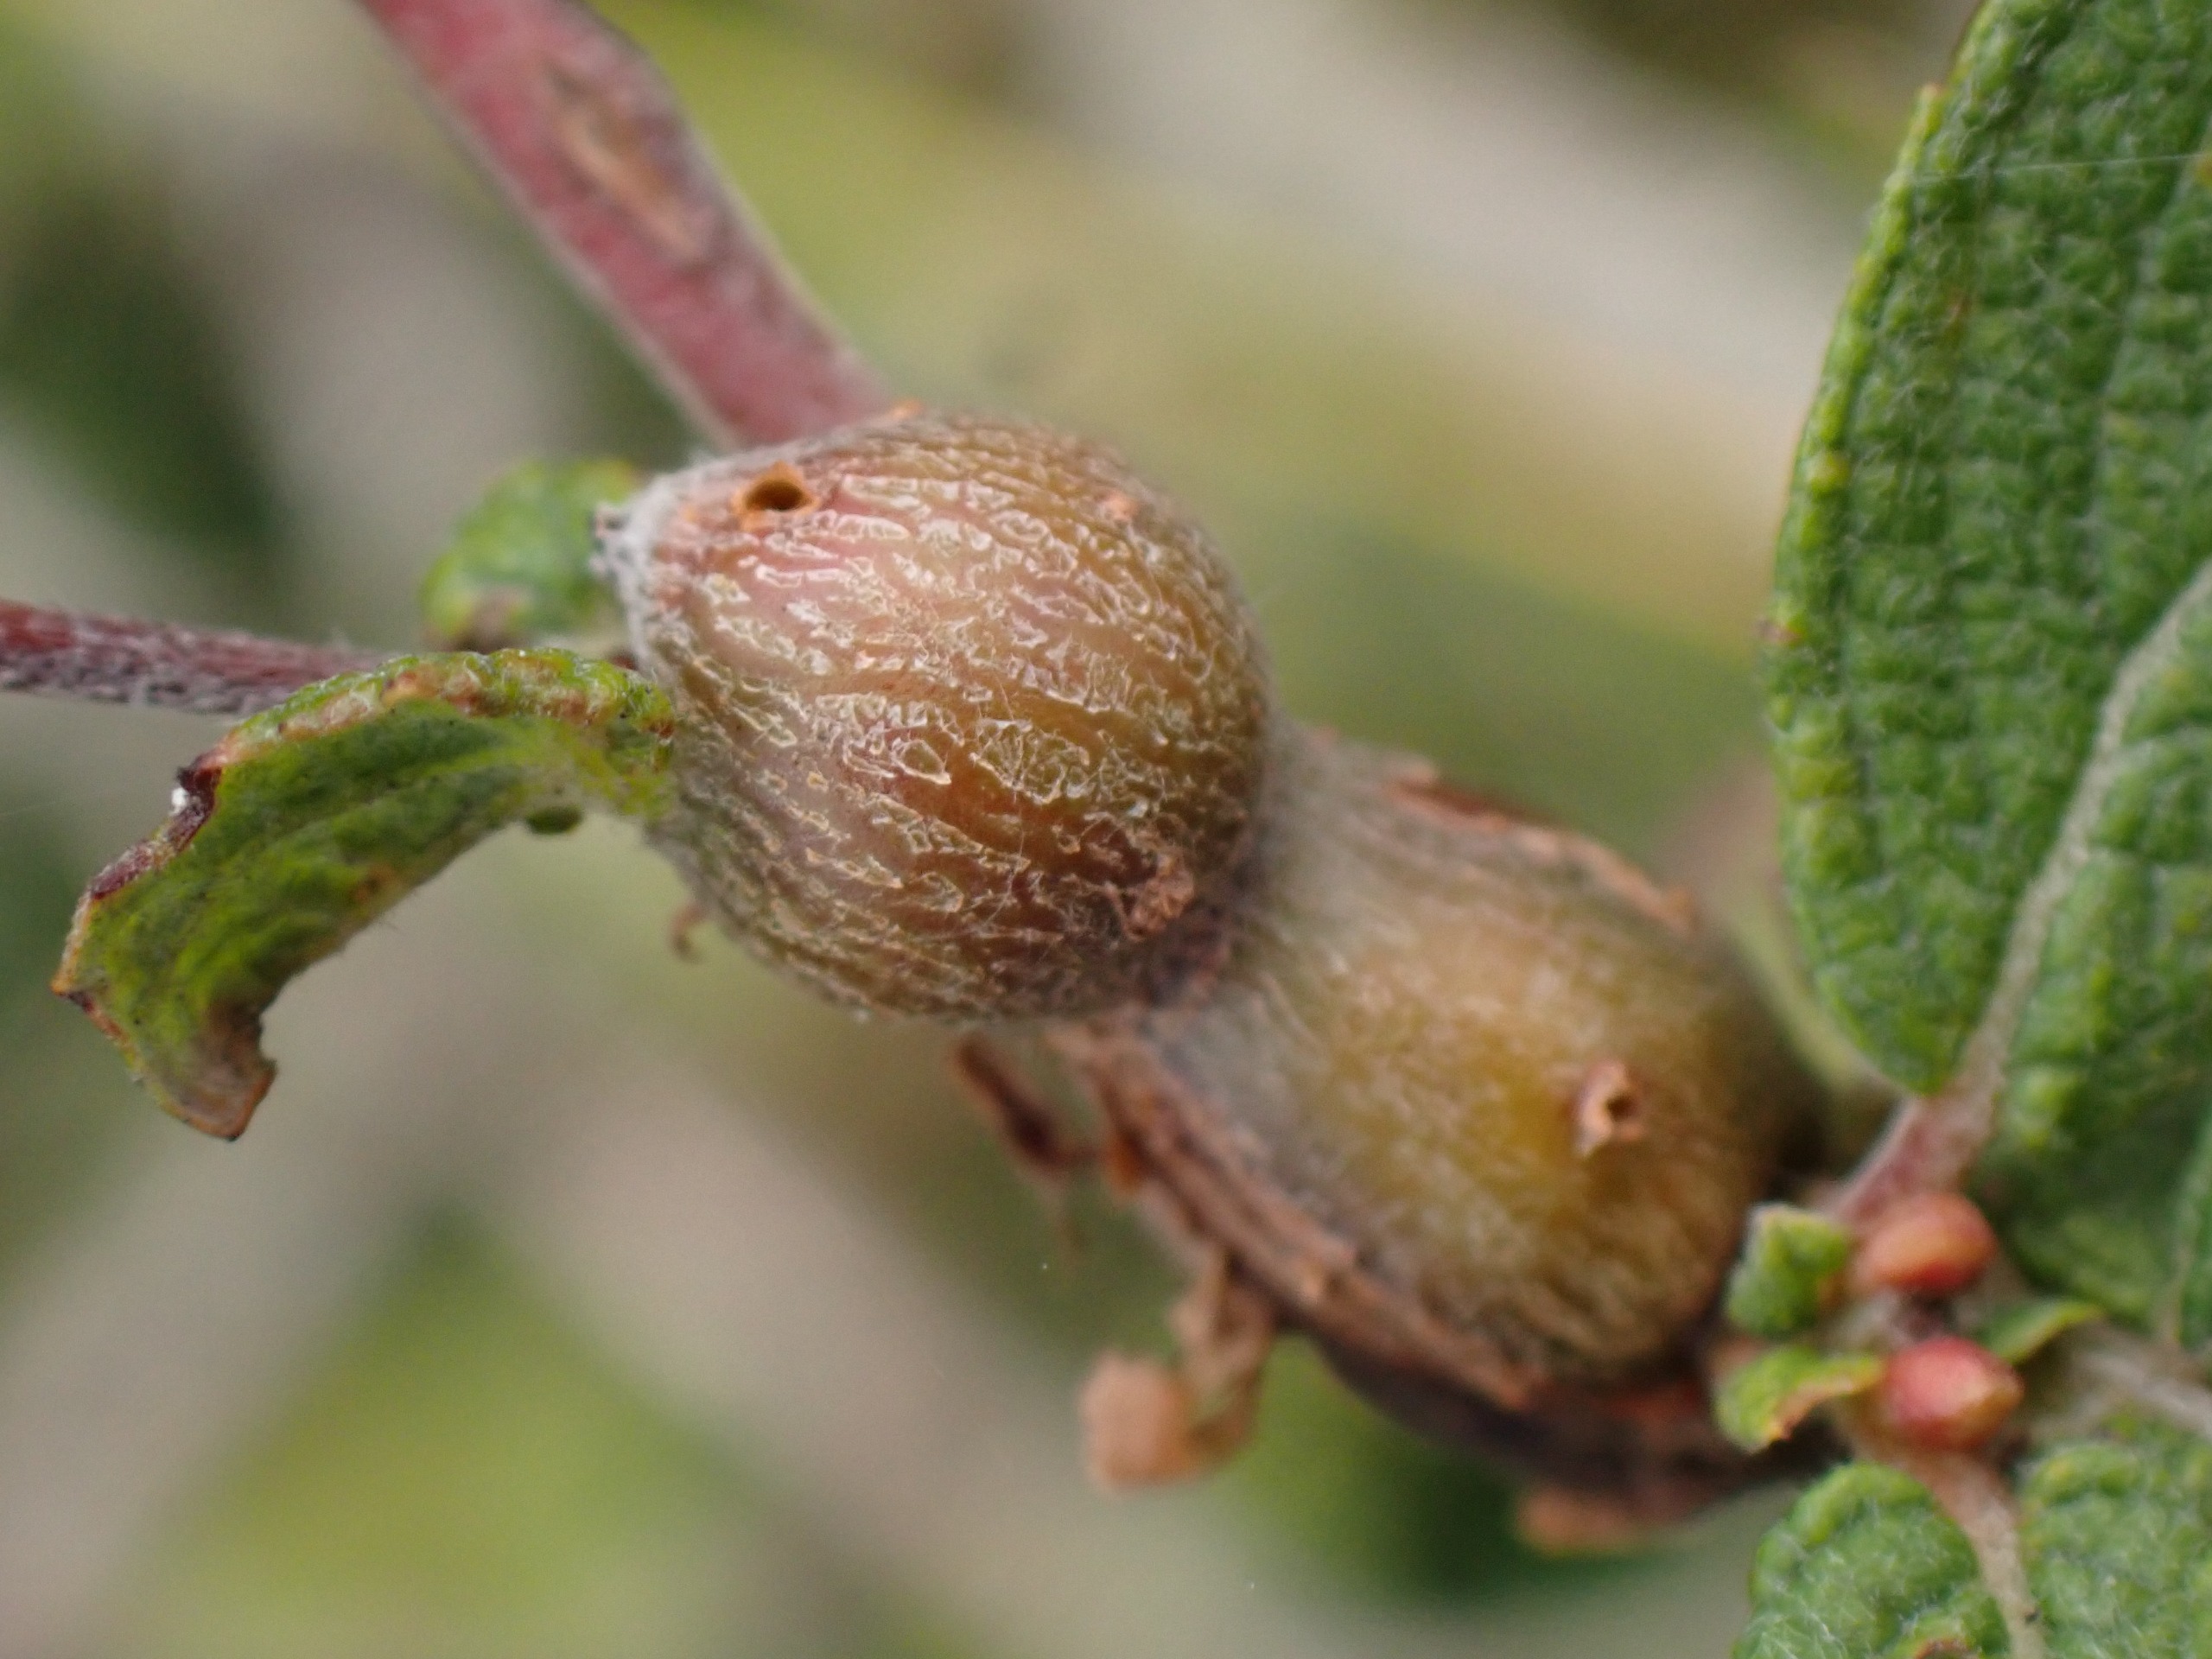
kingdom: Animalia
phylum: Arthropoda
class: Insecta
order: Diptera
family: Cecidomyiidae
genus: Rabdophaga
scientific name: Rabdophaga salicis
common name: Seljegrengalmyg
